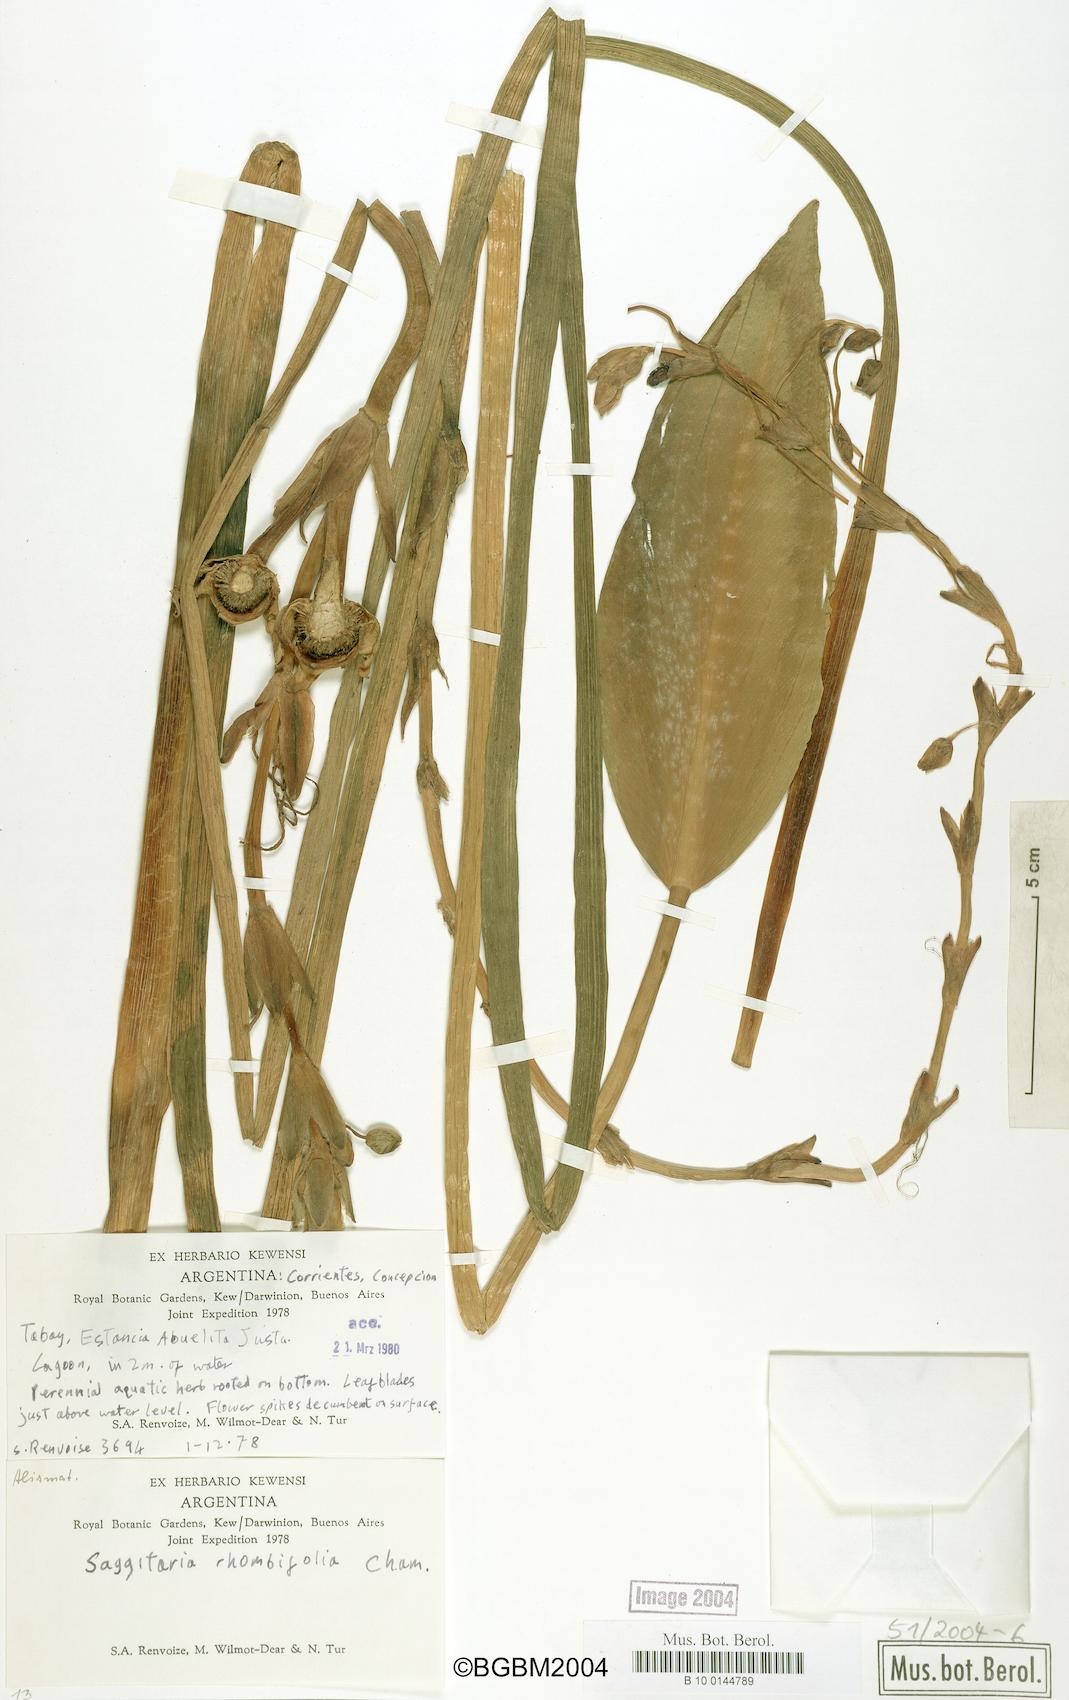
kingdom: Plantae
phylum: Tracheophyta
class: Liliopsida
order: Alismatales
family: Alismataceae
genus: Sagittaria
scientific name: Sagittaria rhombifolia
